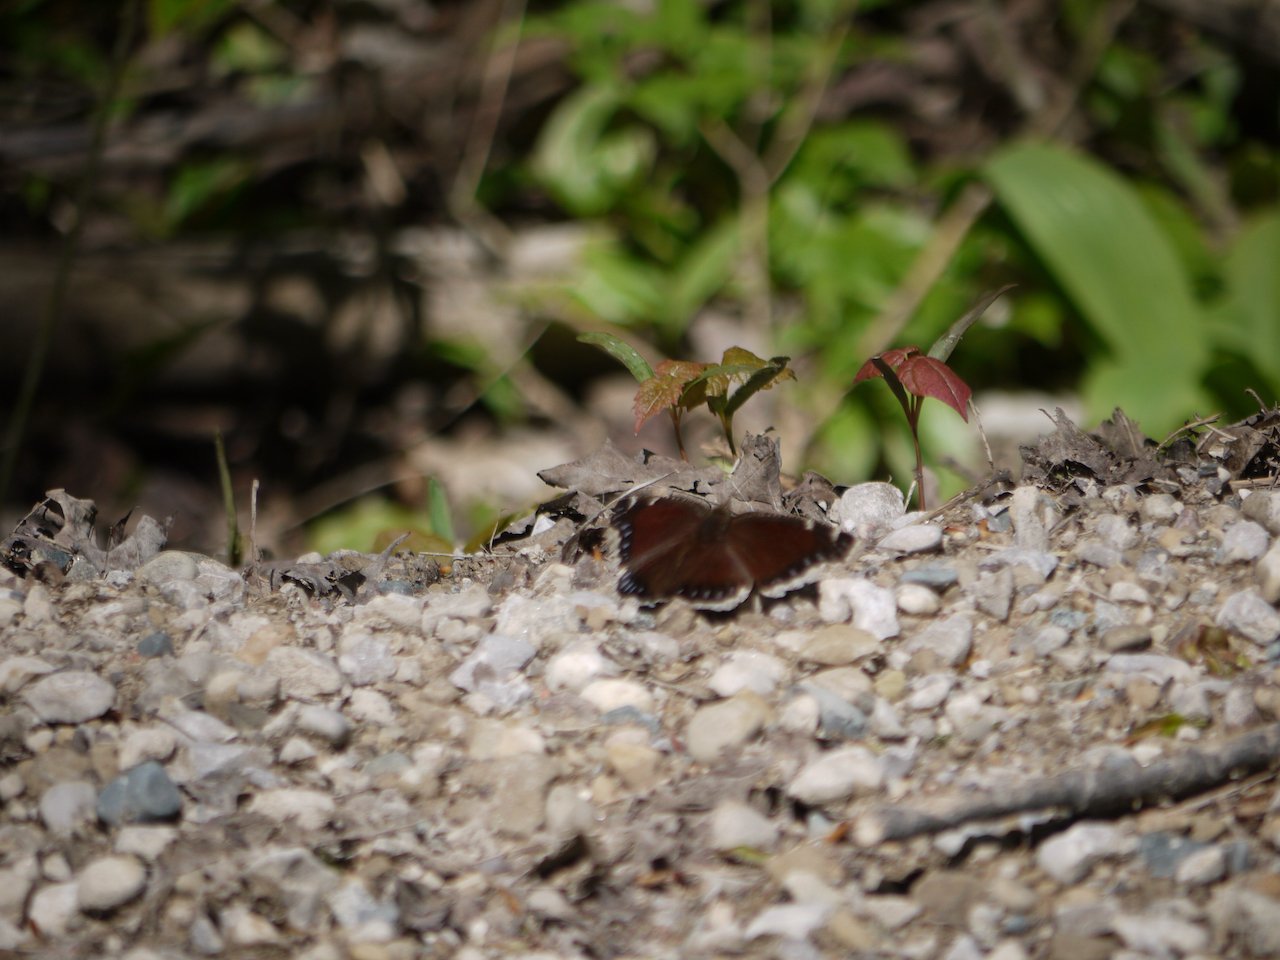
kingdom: Animalia
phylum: Arthropoda
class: Insecta
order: Lepidoptera
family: Nymphalidae
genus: Nymphalis
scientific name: Nymphalis antiopa
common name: Mourning Cloak
